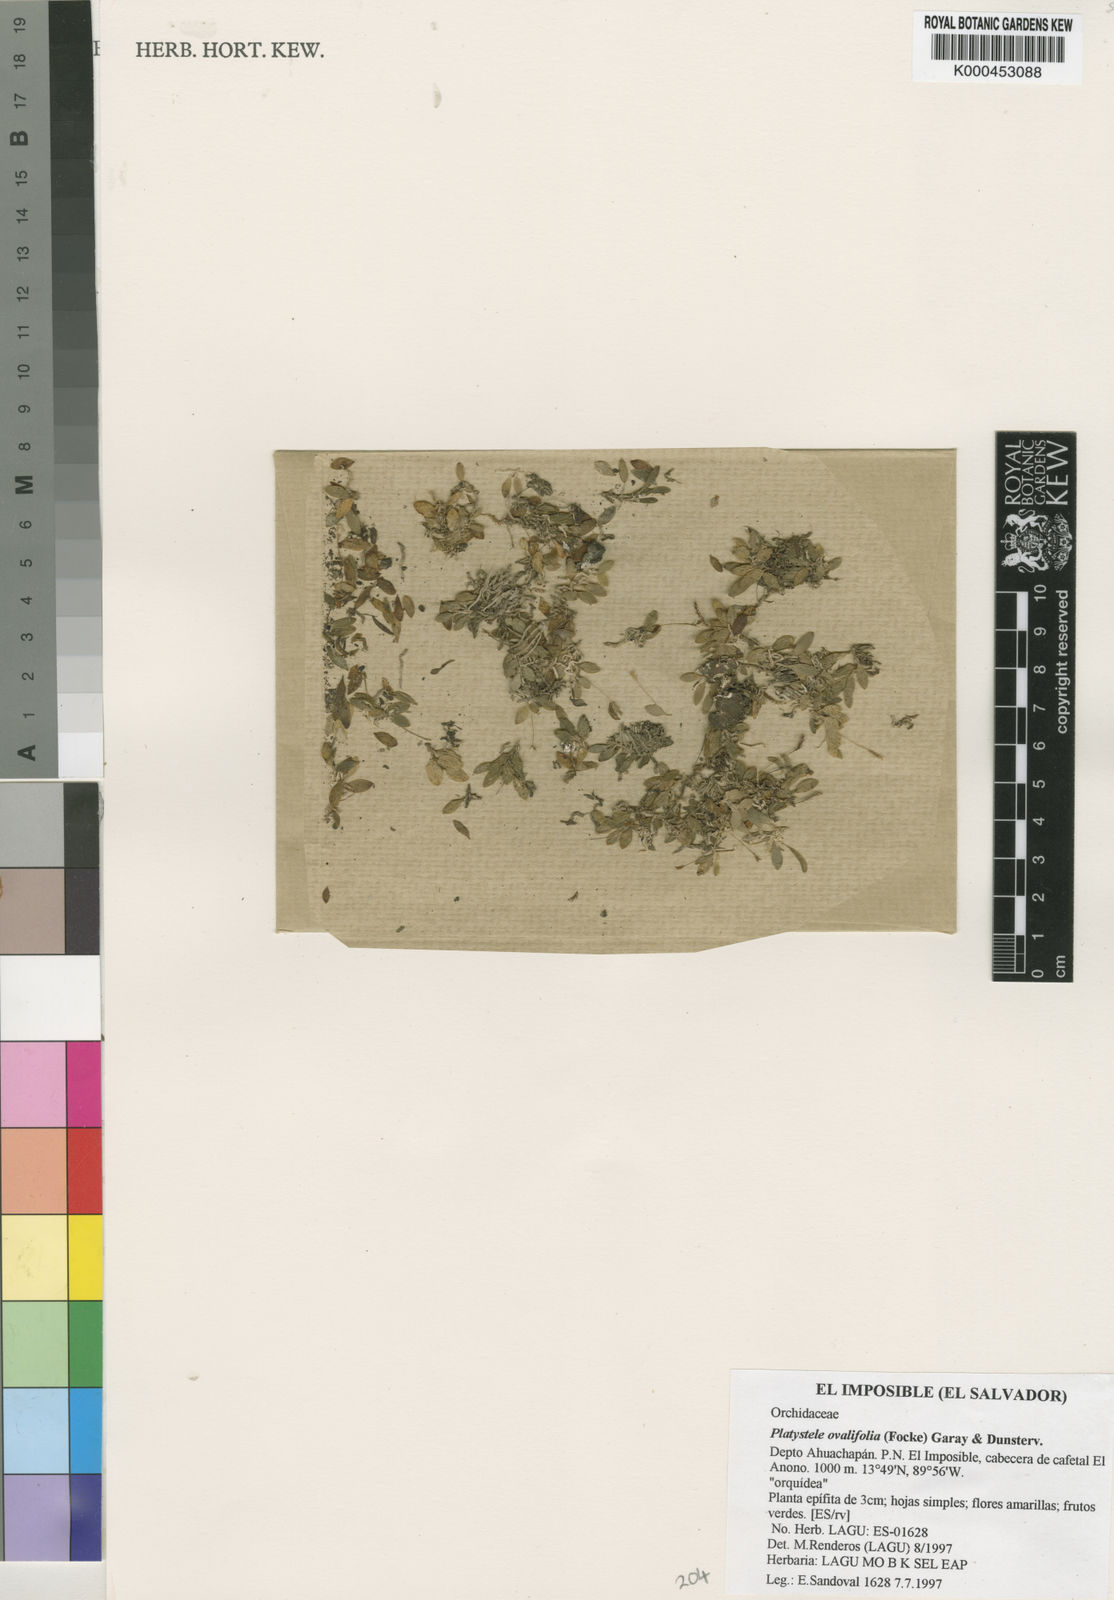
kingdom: Plantae
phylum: Tracheophyta
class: Liliopsida
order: Asparagales
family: Orchidaceae
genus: Platystele
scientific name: Platystele ovalifolia
